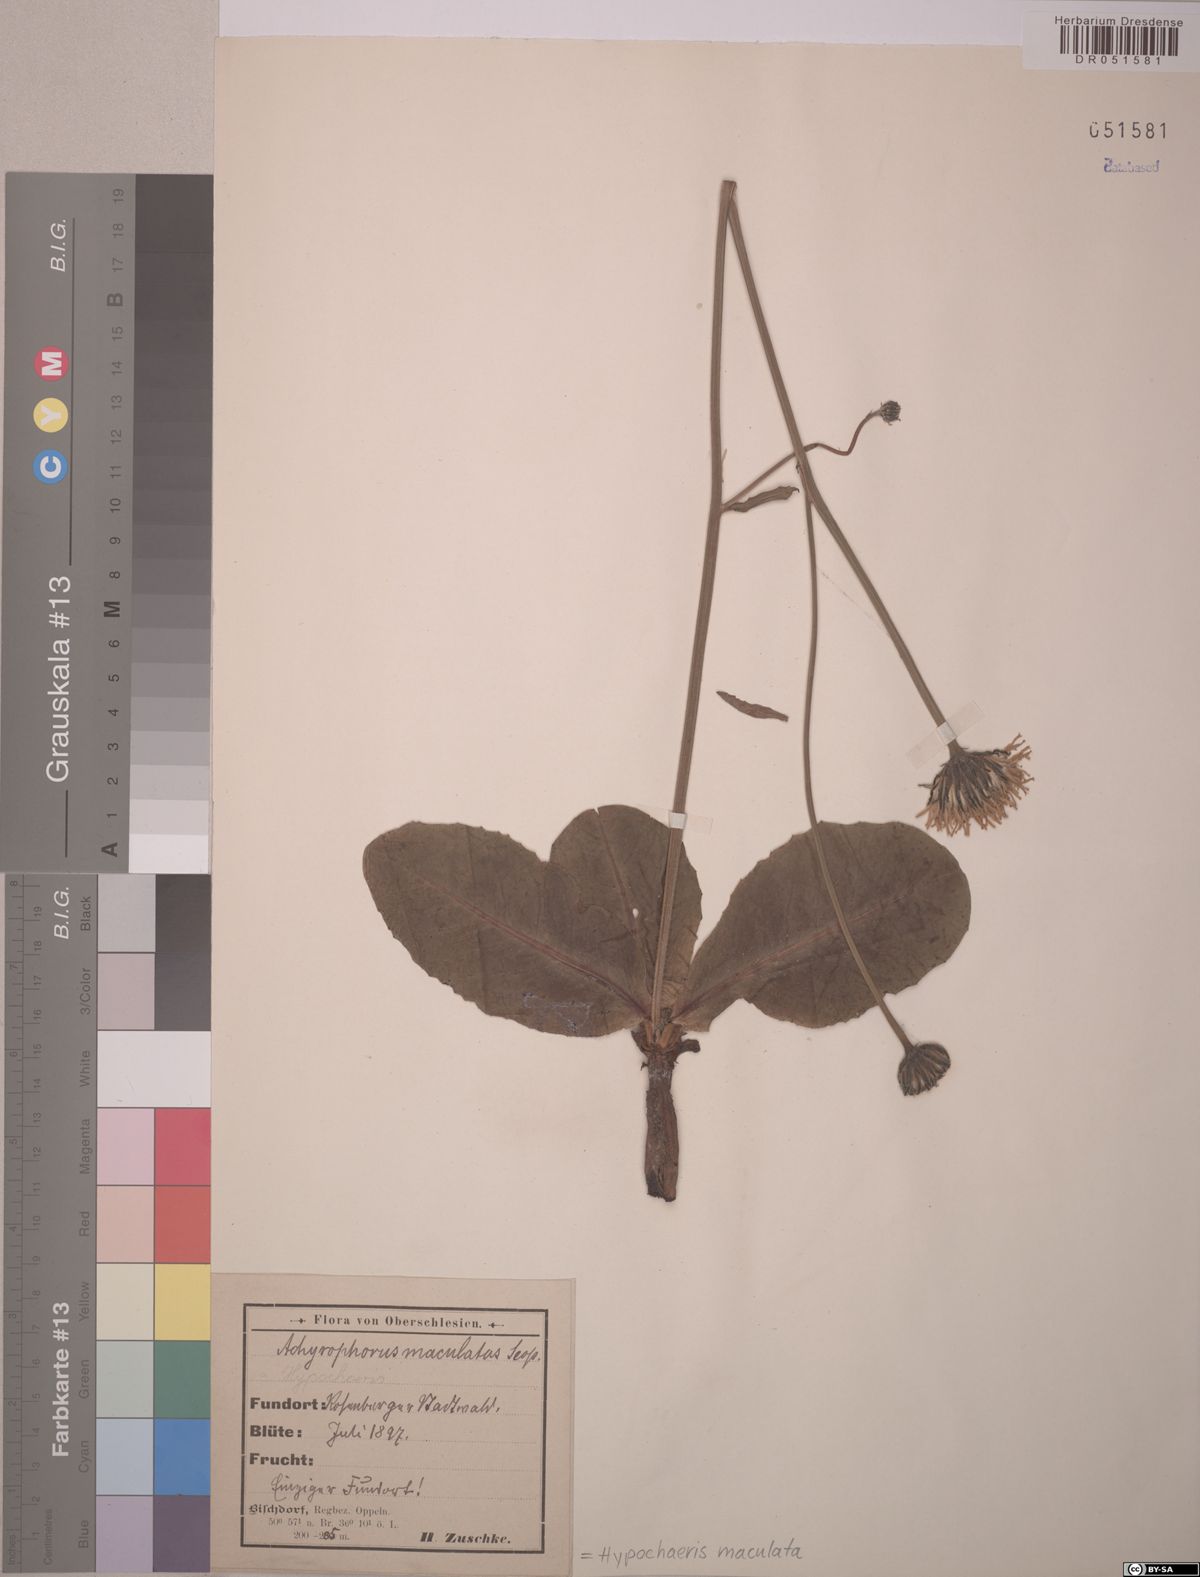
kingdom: Plantae
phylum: Tracheophyta
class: Magnoliopsida
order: Asterales
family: Asteraceae
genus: Trommsdorffia
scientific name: Trommsdorffia maculata
